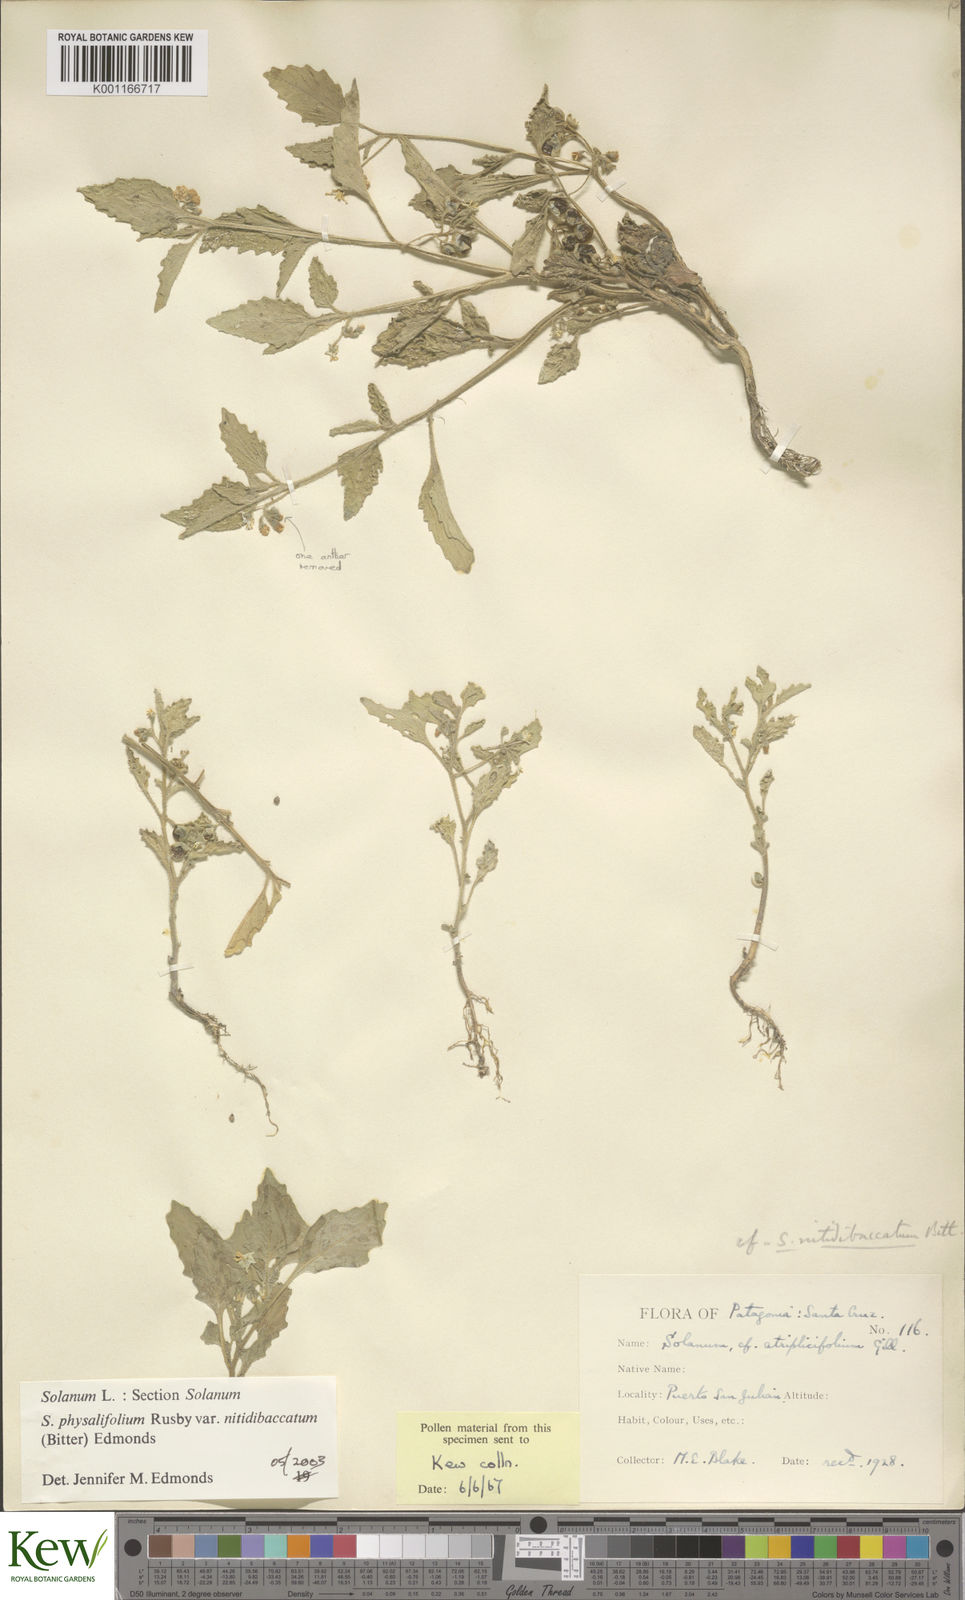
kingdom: Plantae
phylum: Tracheophyta
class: Magnoliopsida
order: Solanales
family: Solanaceae
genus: Solanum
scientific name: Solanum nitidibaccatum
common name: Hairy nightshade
